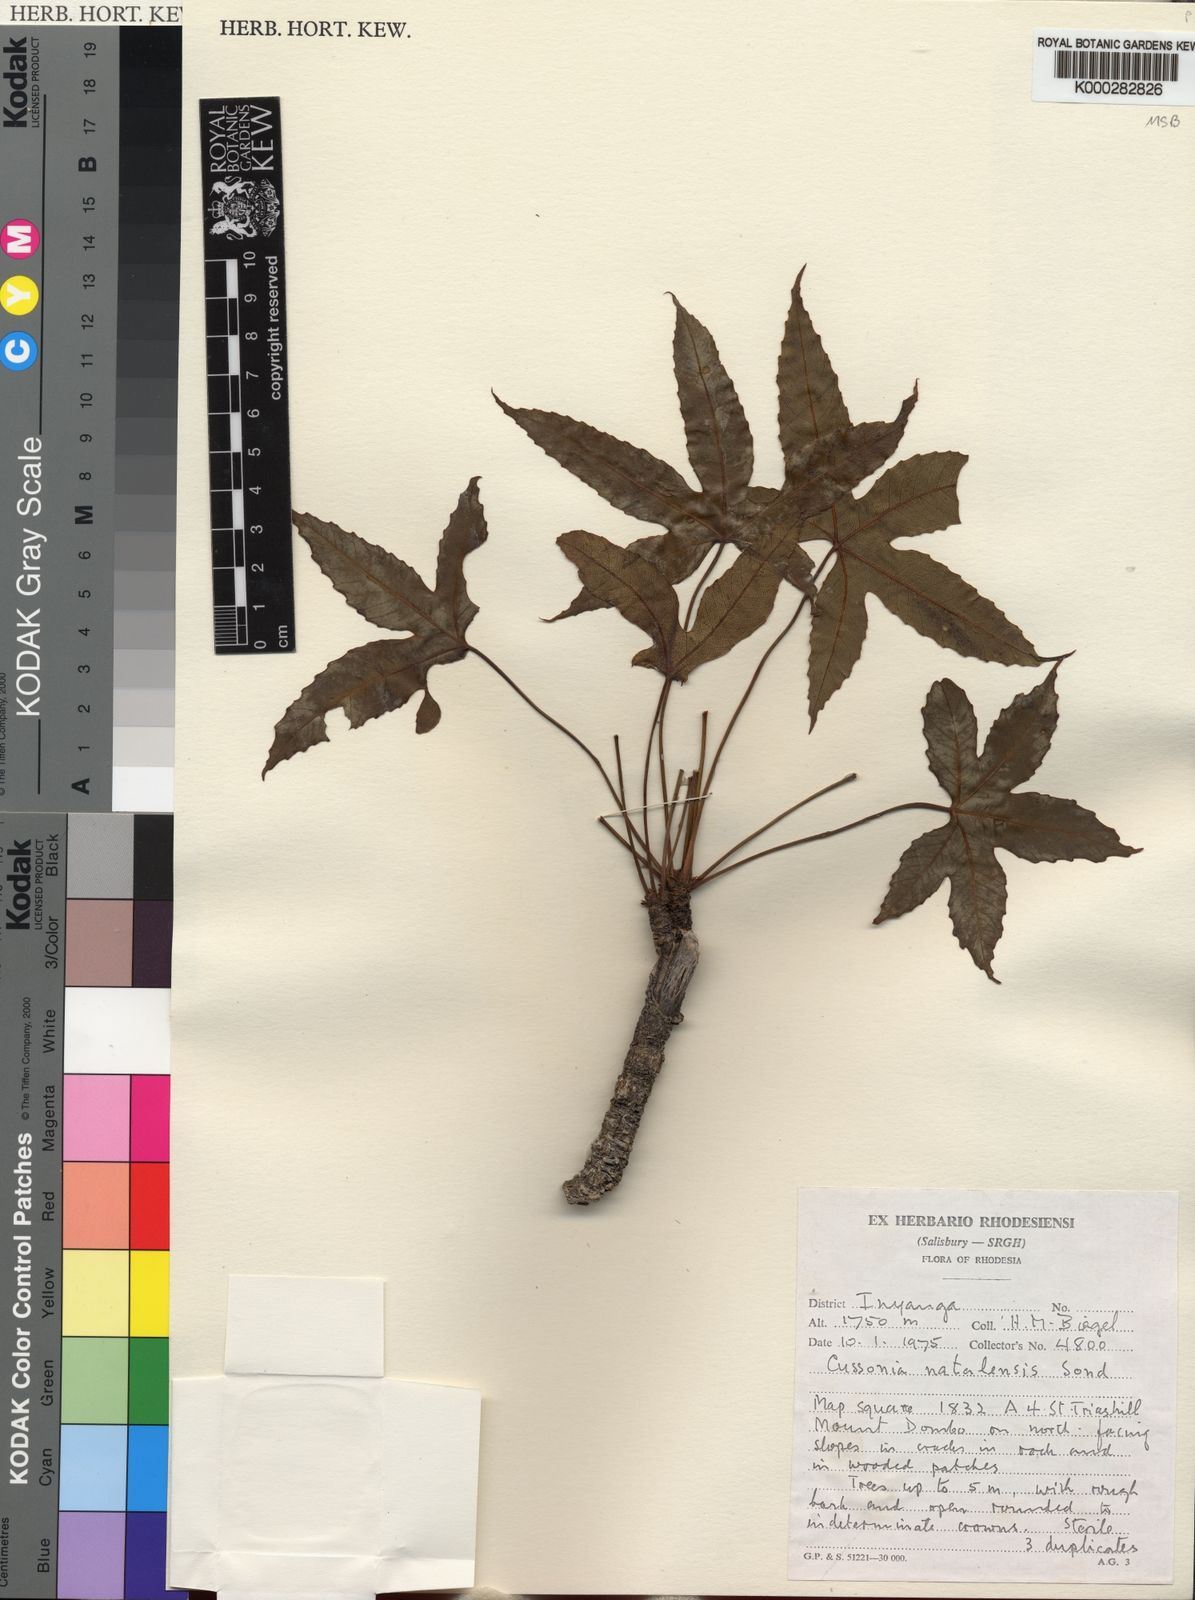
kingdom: Plantae
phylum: Tracheophyta
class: Magnoliopsida
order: Apiales
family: Araliaceae
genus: Cussonia
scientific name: Cussonia natalensis
